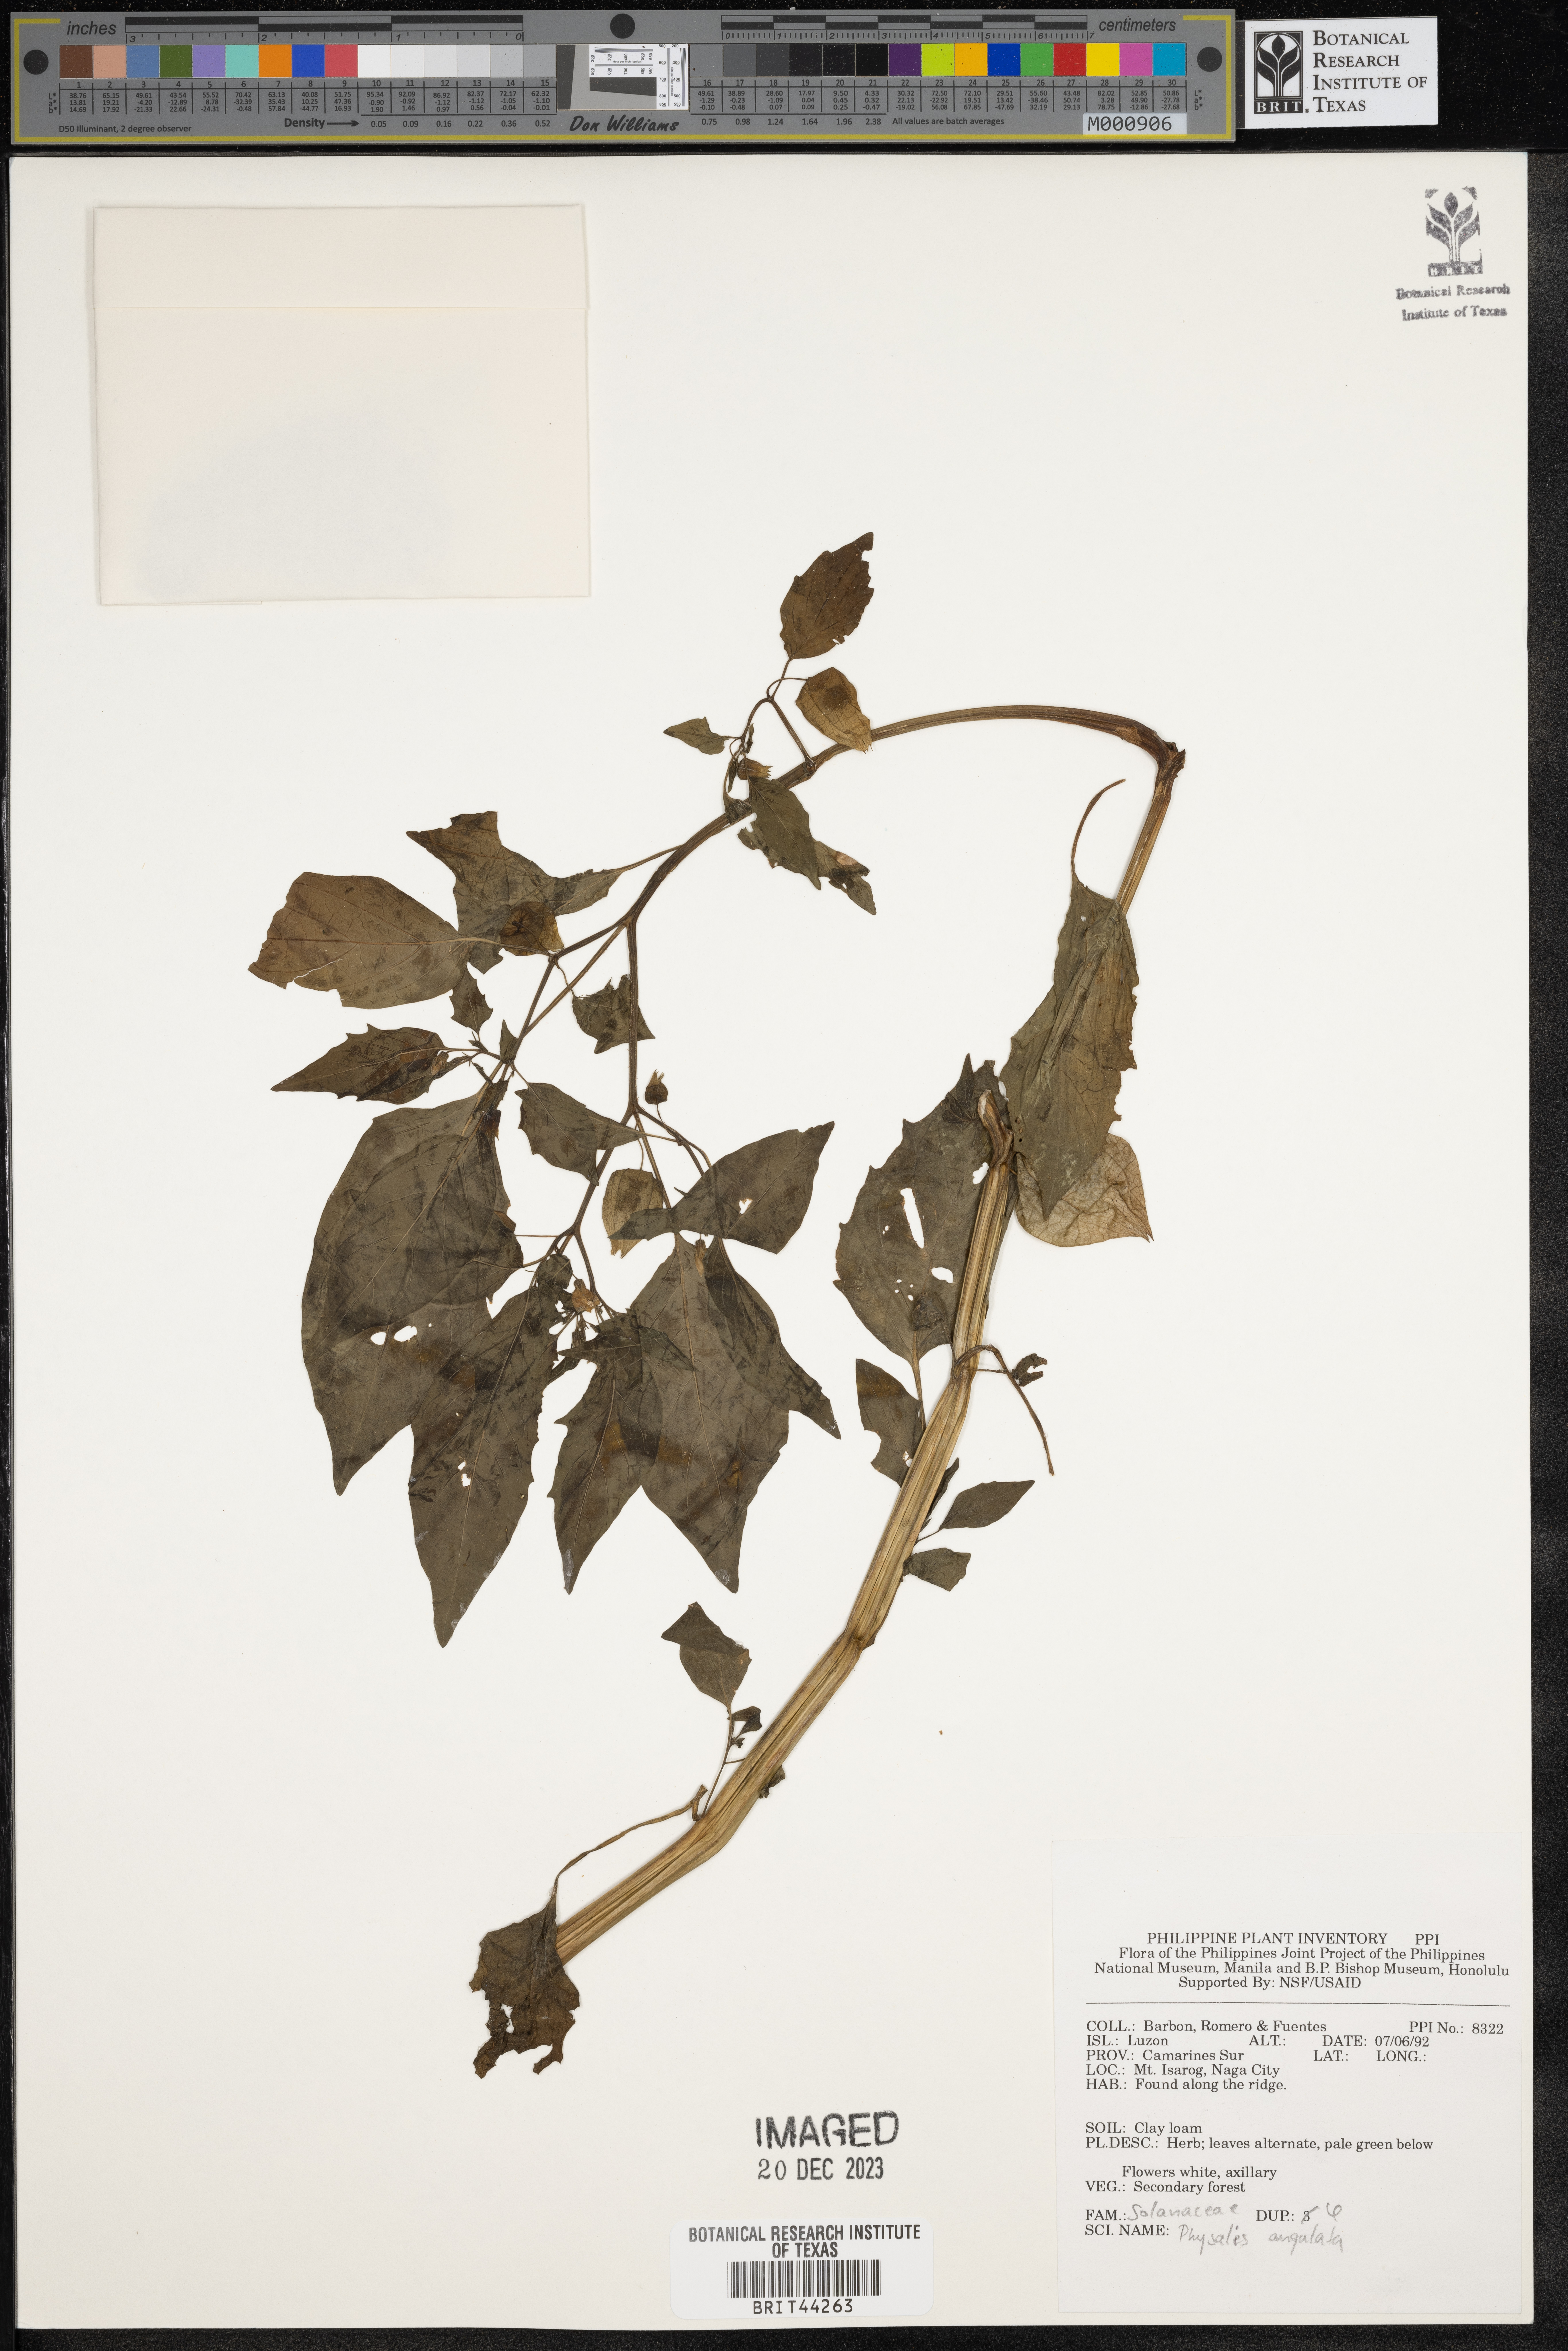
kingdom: Plantae
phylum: Tracheophyta
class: Magnoliopsida
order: Solanales
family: Solanaceae
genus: Physalis
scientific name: Physalis angulata
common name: Angular winter-cherry
